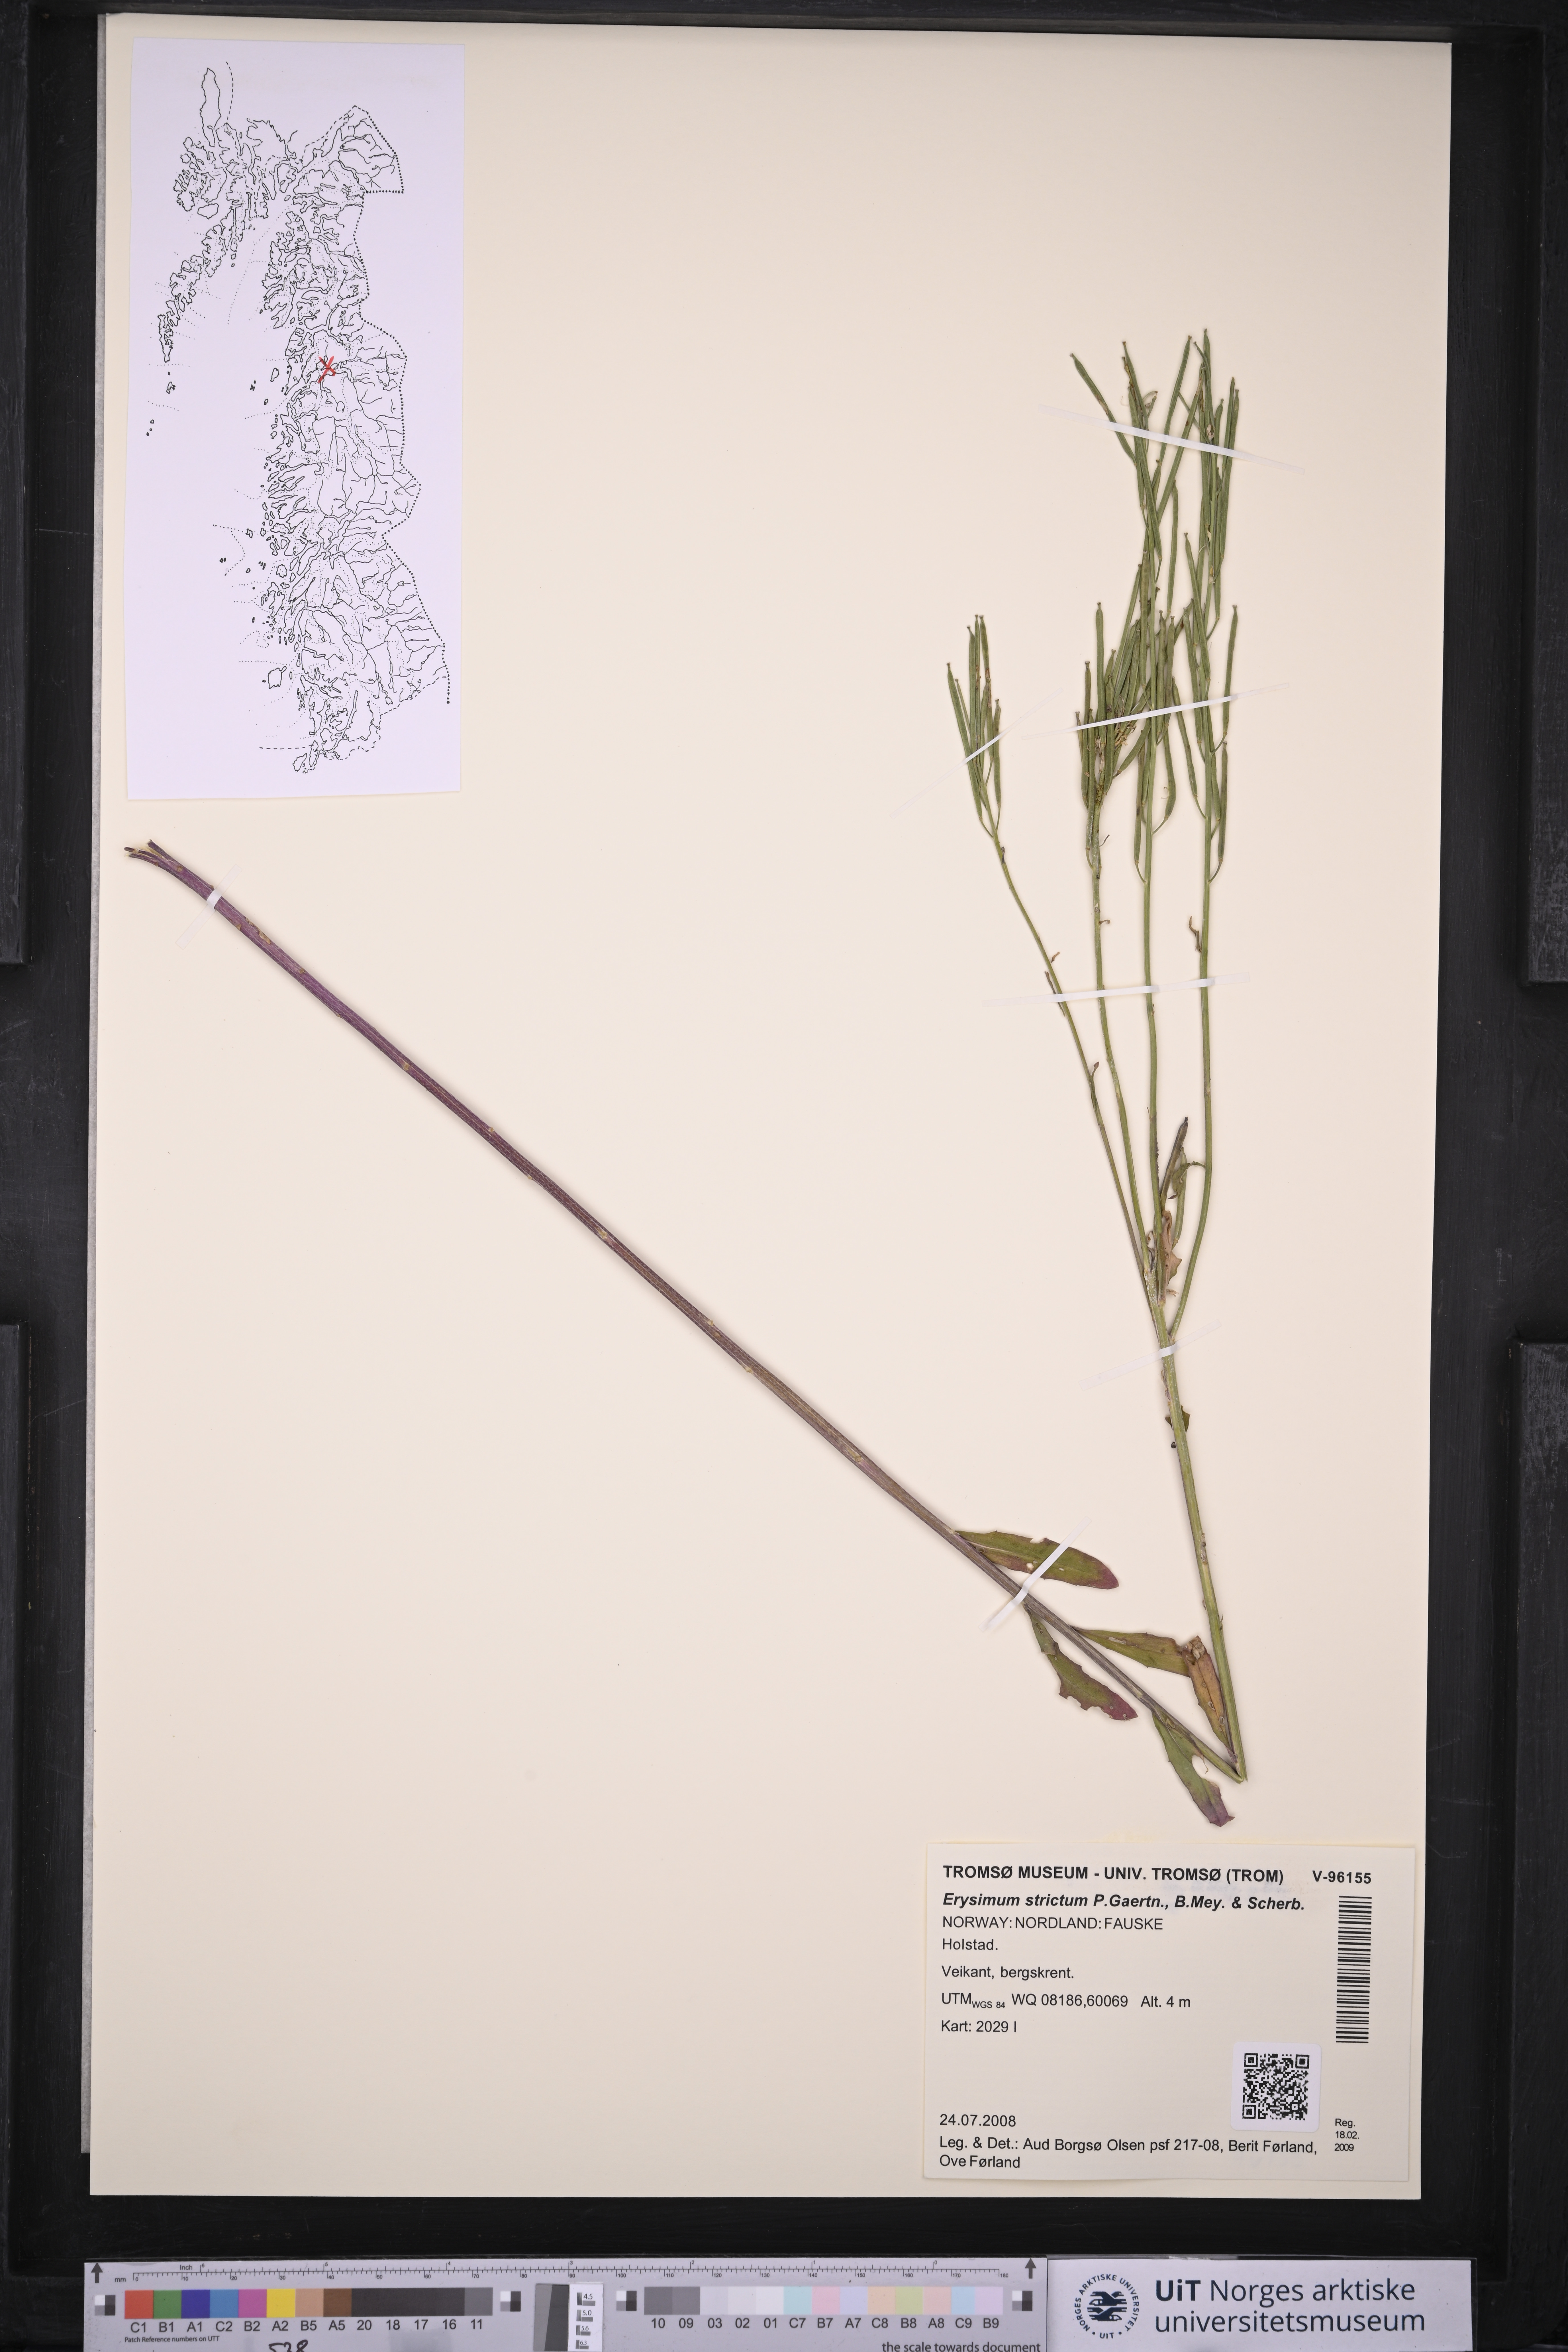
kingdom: Plantae
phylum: Tracheophyta
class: Magnoliopsida
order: Brassicales
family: Brassicaceae
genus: Erysimum
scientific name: Erysimum virgatum
